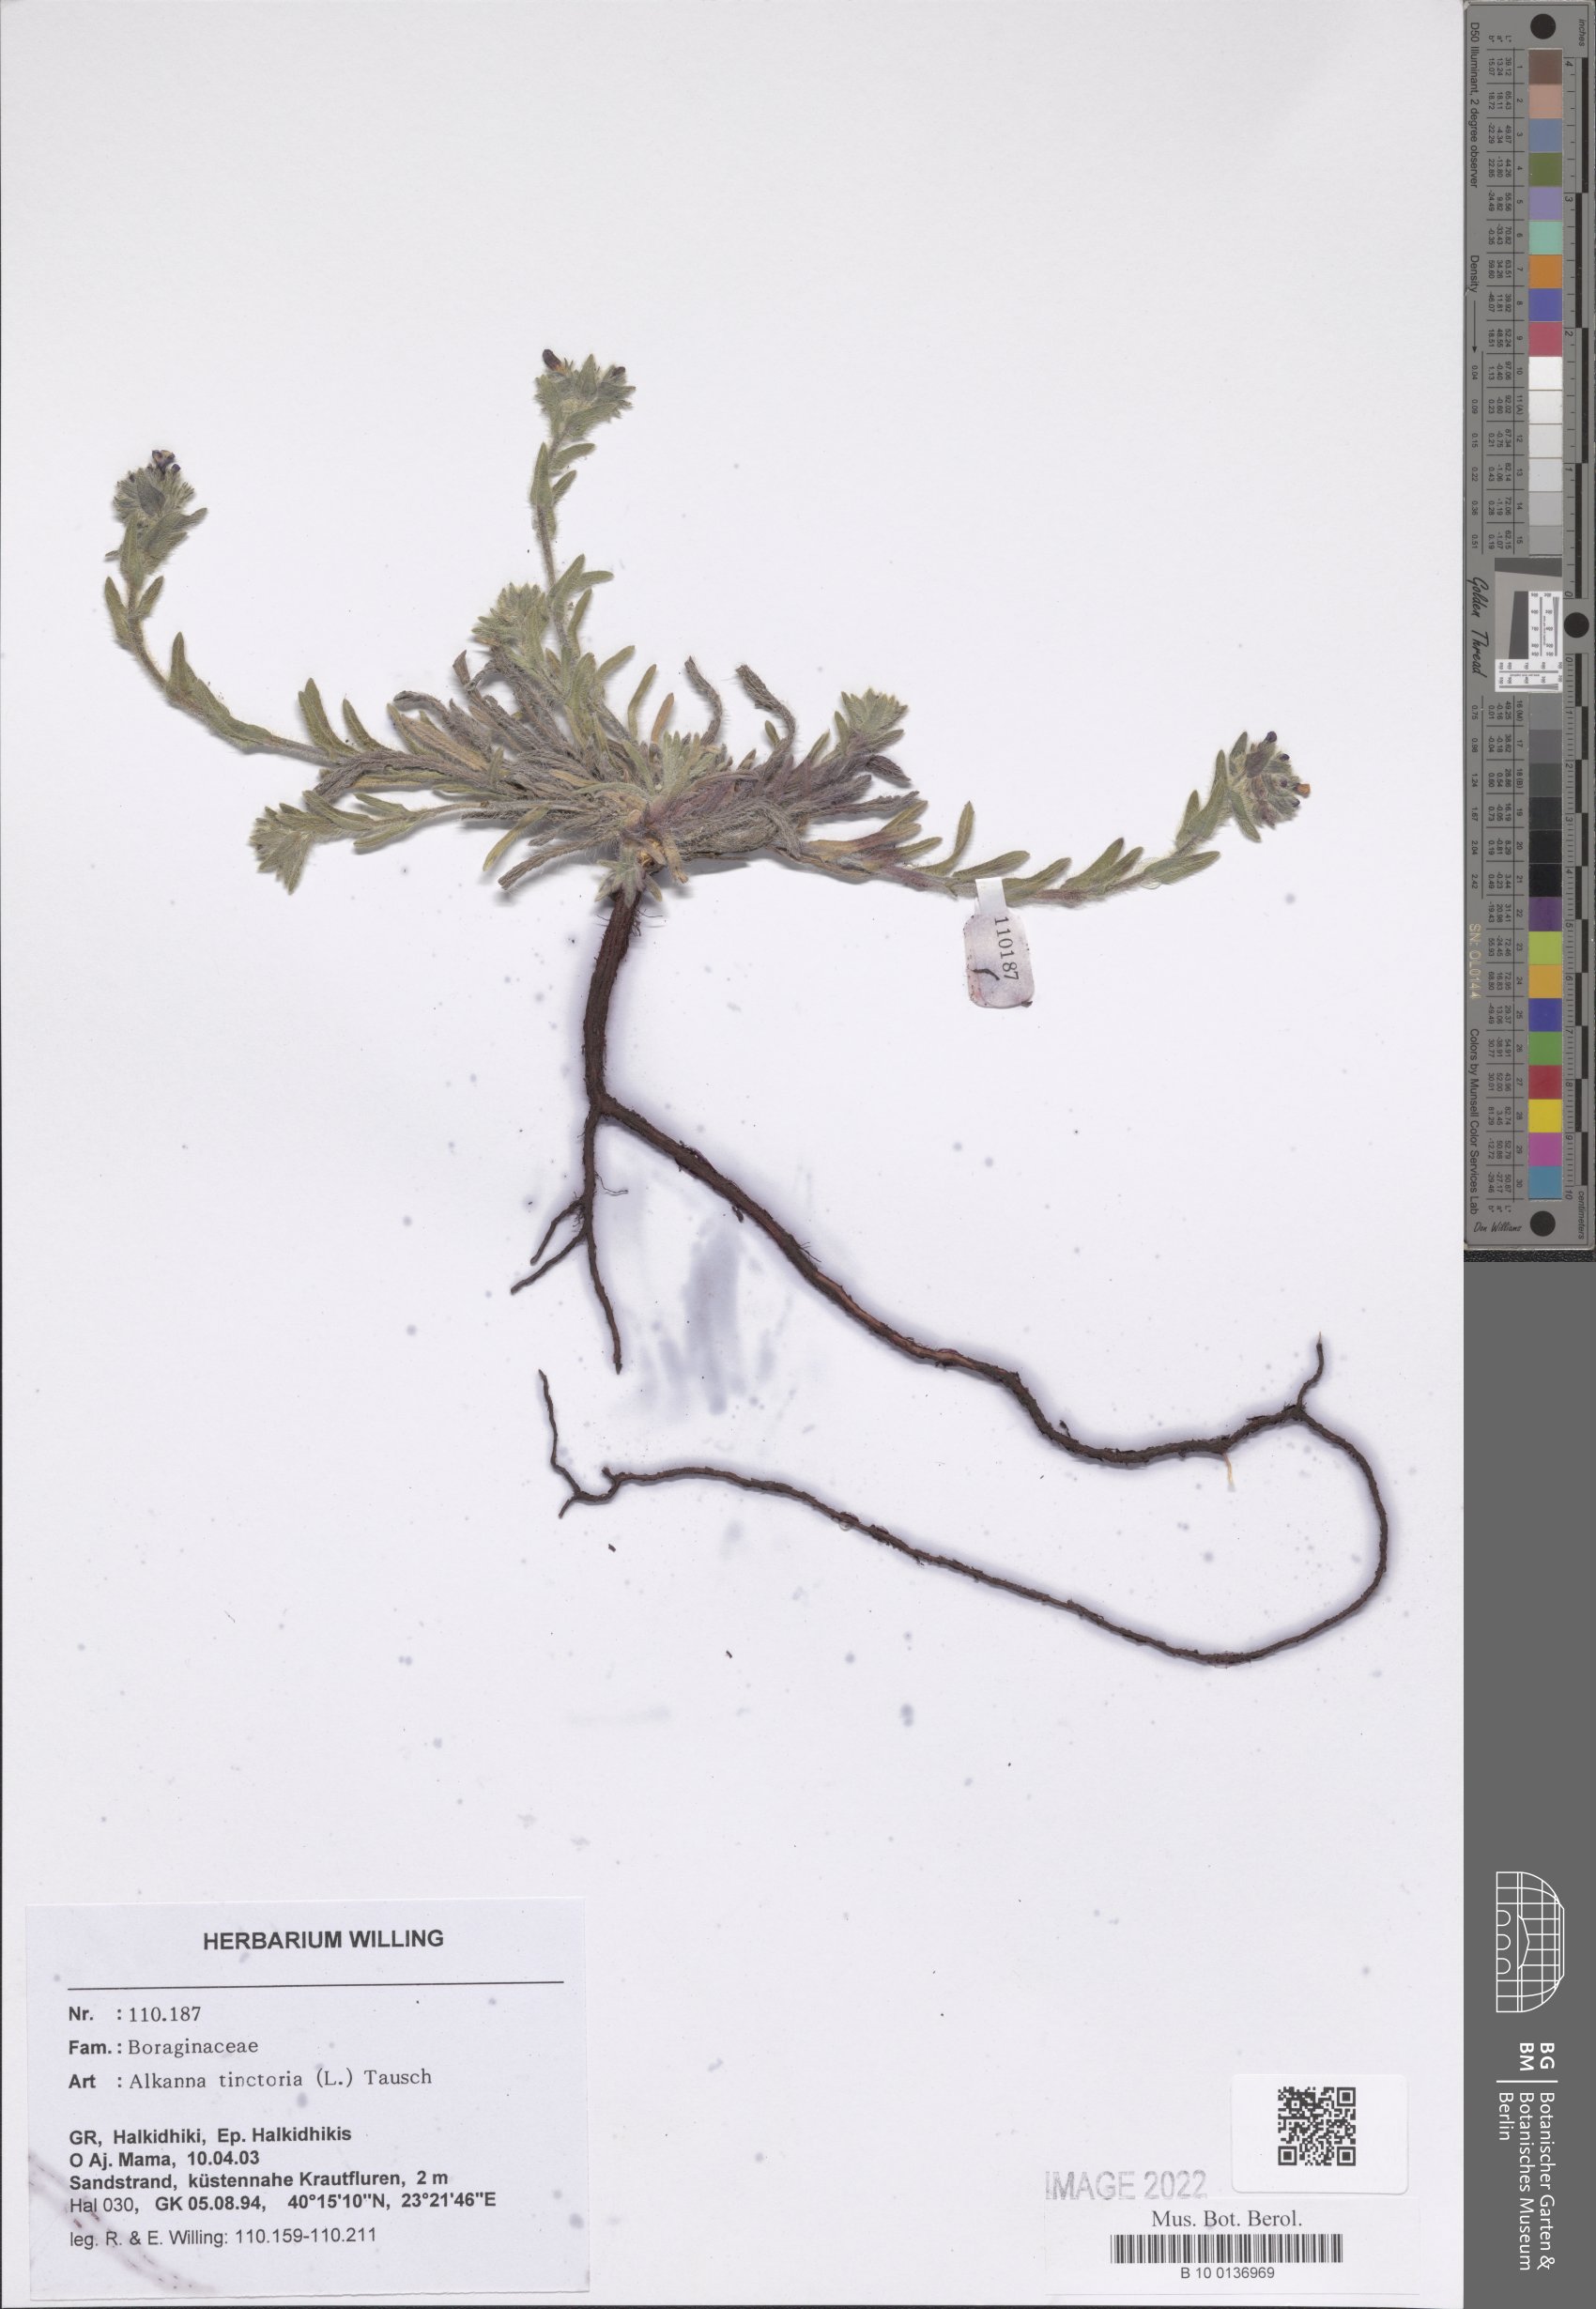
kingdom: Plantae
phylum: Tracheophyta
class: Magnoliopsida
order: Boraginales
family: Boraginaceae
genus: Alkanna
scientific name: Alkanna tinctoria
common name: Dyer's-alkanet
